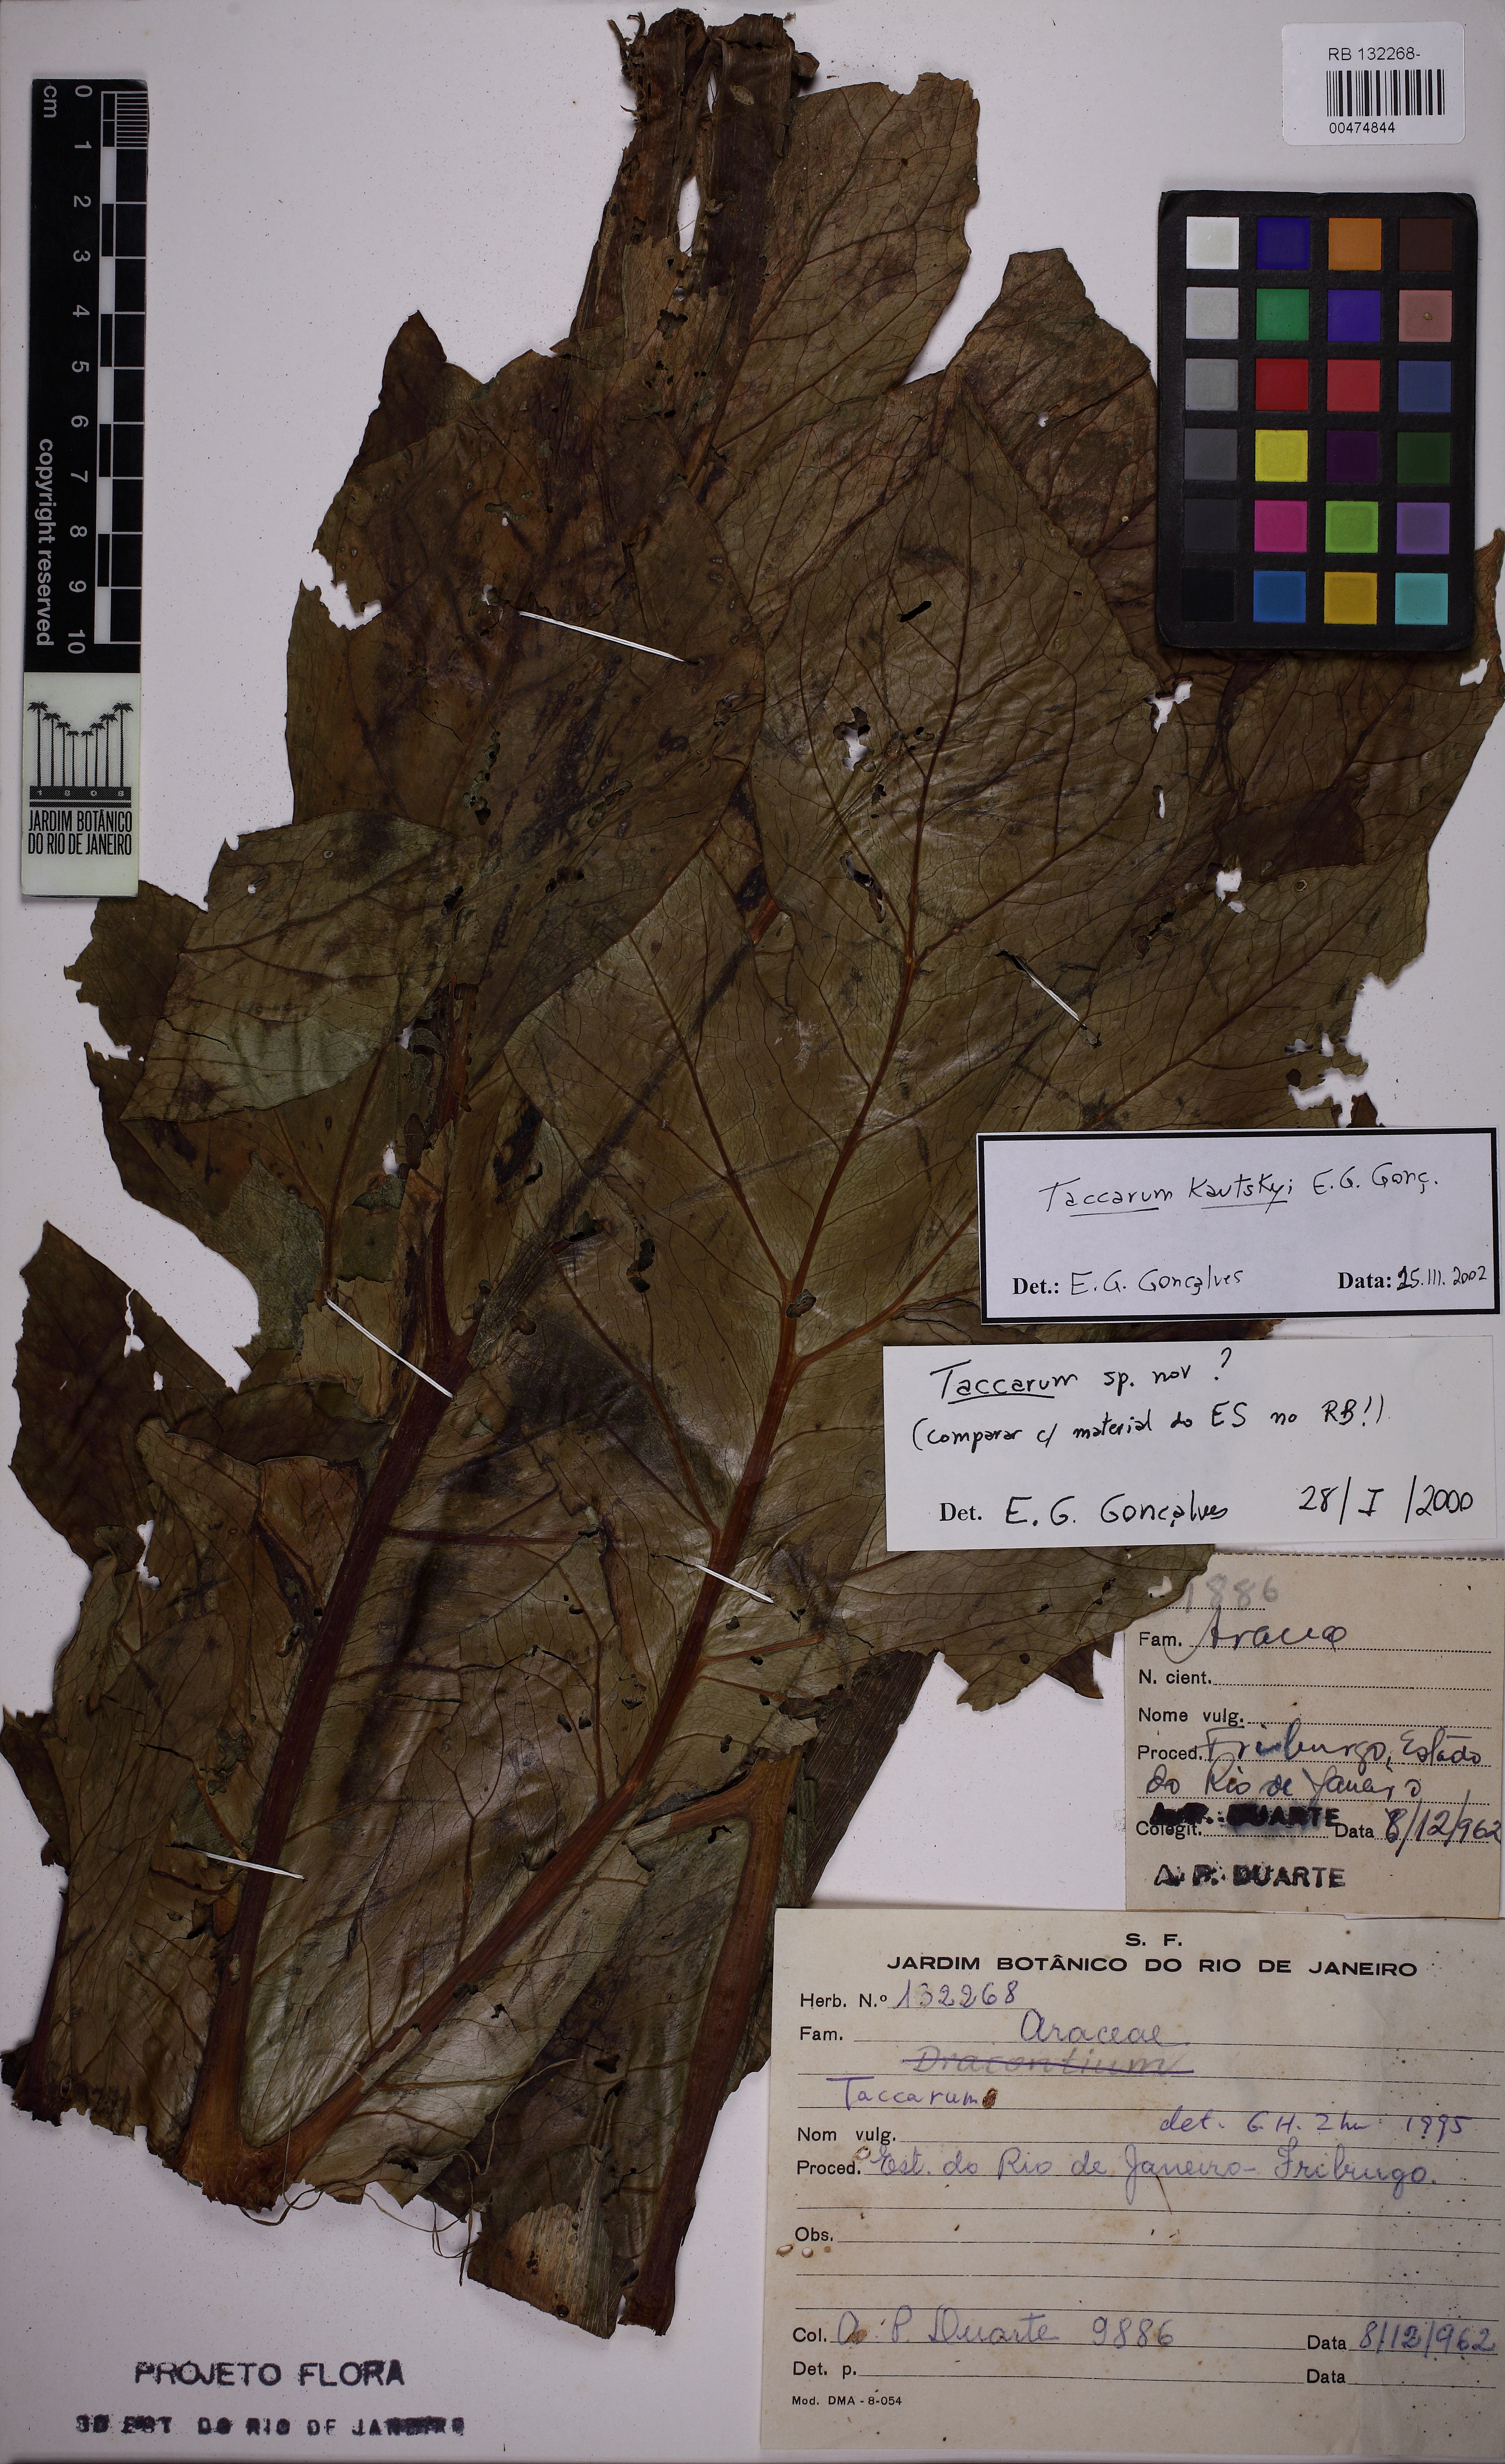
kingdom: Plantae
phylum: Tracheophyta
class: Liliopsida
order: Alismatales
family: Araceae
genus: Taccarum
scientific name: Taccarum
